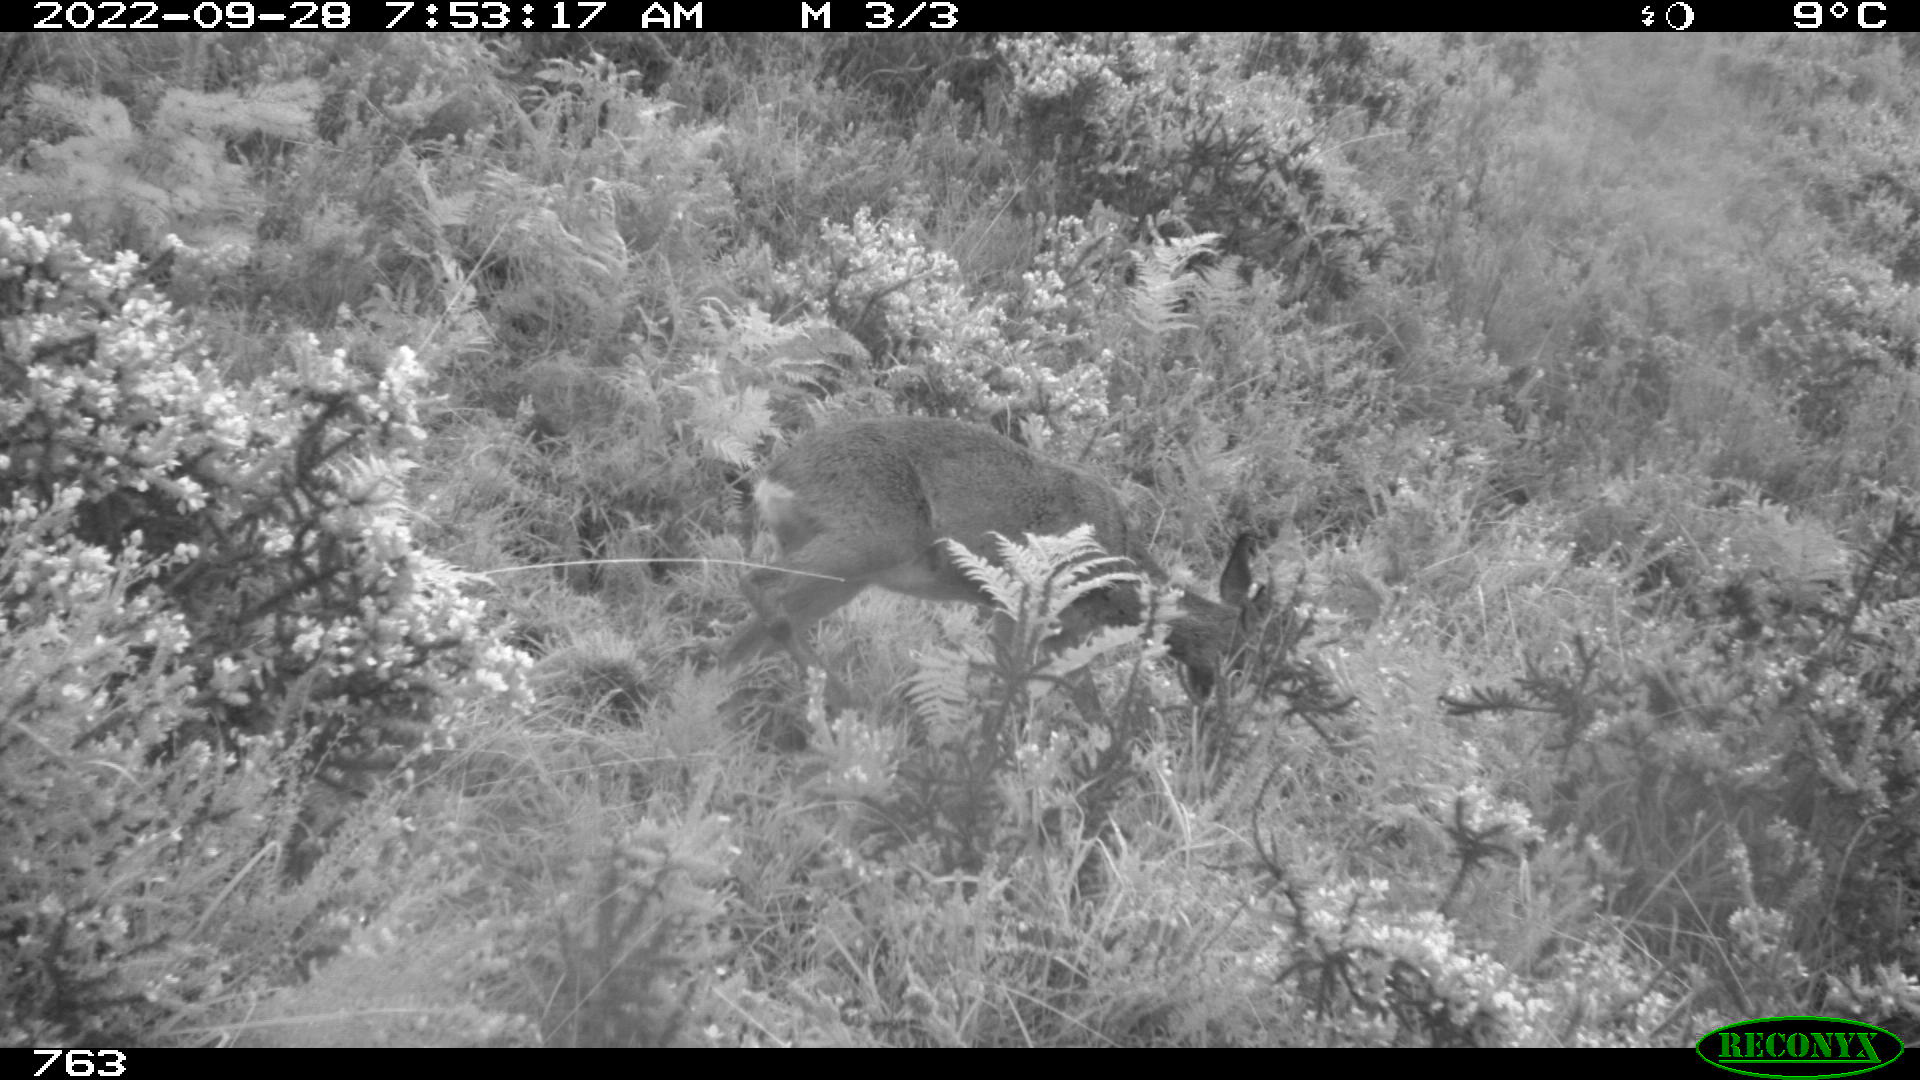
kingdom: Animalia
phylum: Chordata
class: Mammalia
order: Artiodactyla
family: Cervidae
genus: Capreolus
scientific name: Capreolus capreolus
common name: Western roe deer
